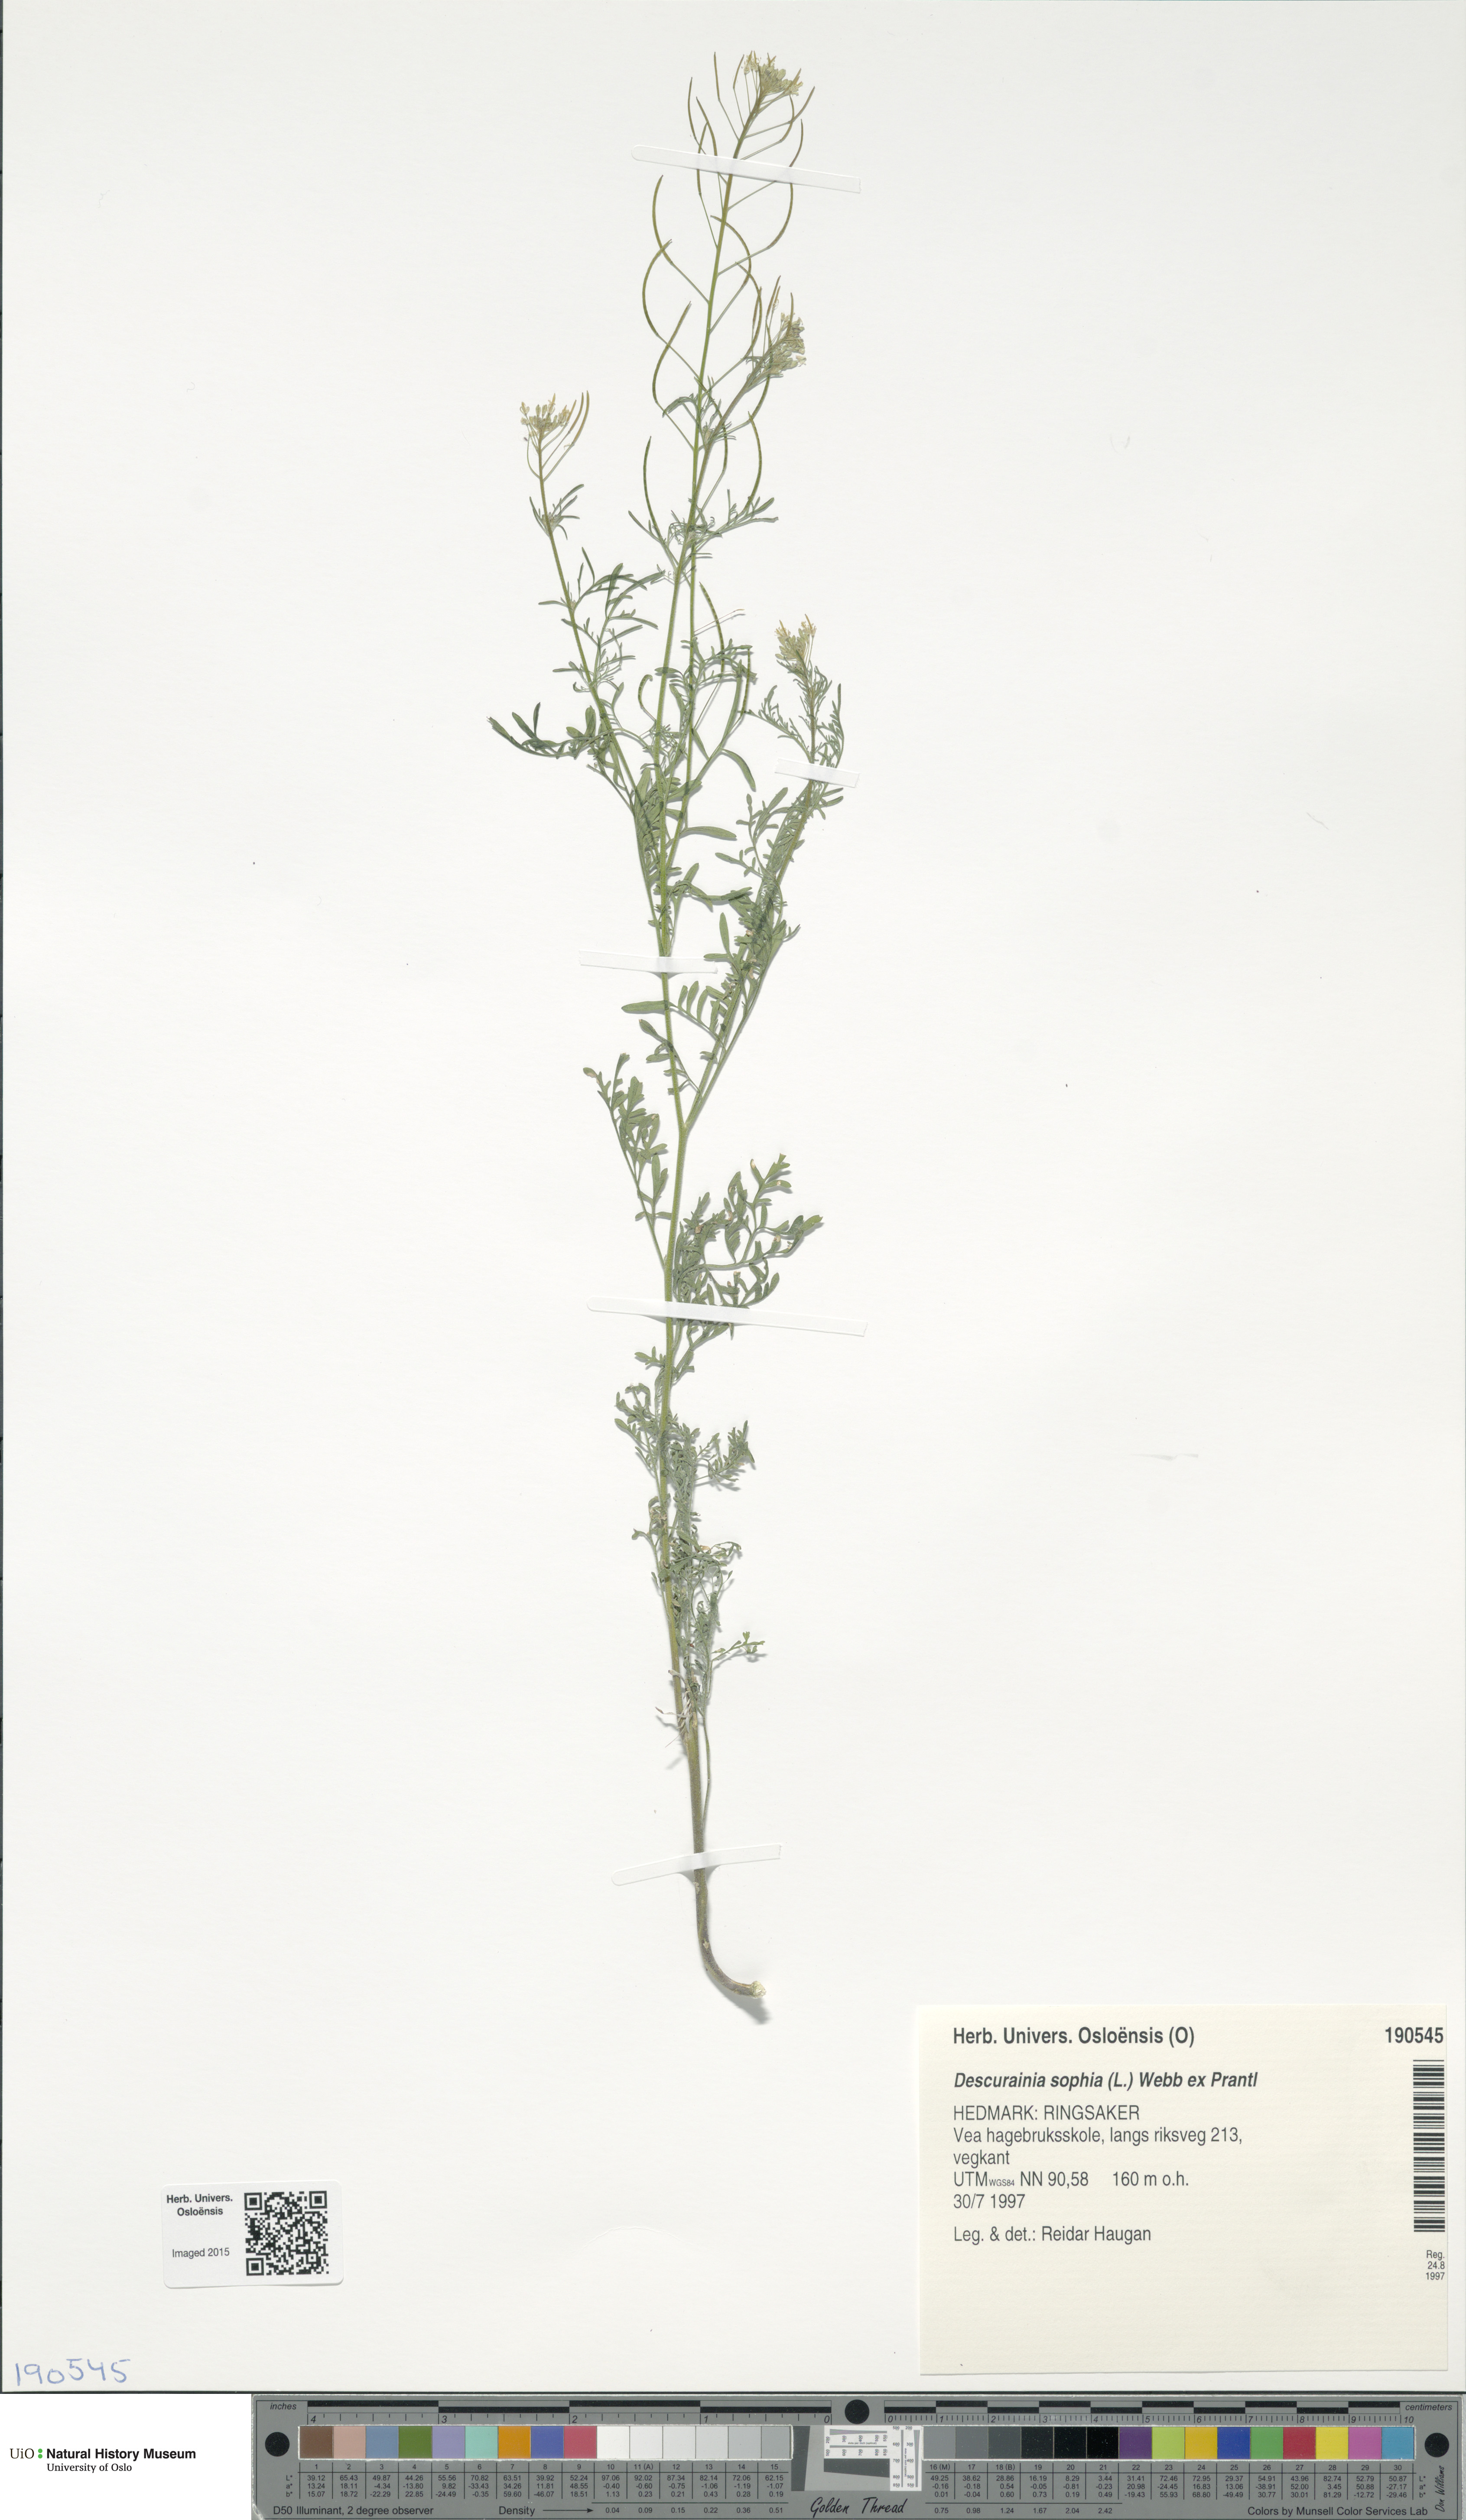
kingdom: Plantae
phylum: Tracheophyta
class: Magnoliopsida
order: Brassicales
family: Brassicaceae
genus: Descurainia
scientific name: Descurainia sophia
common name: Flixweed
